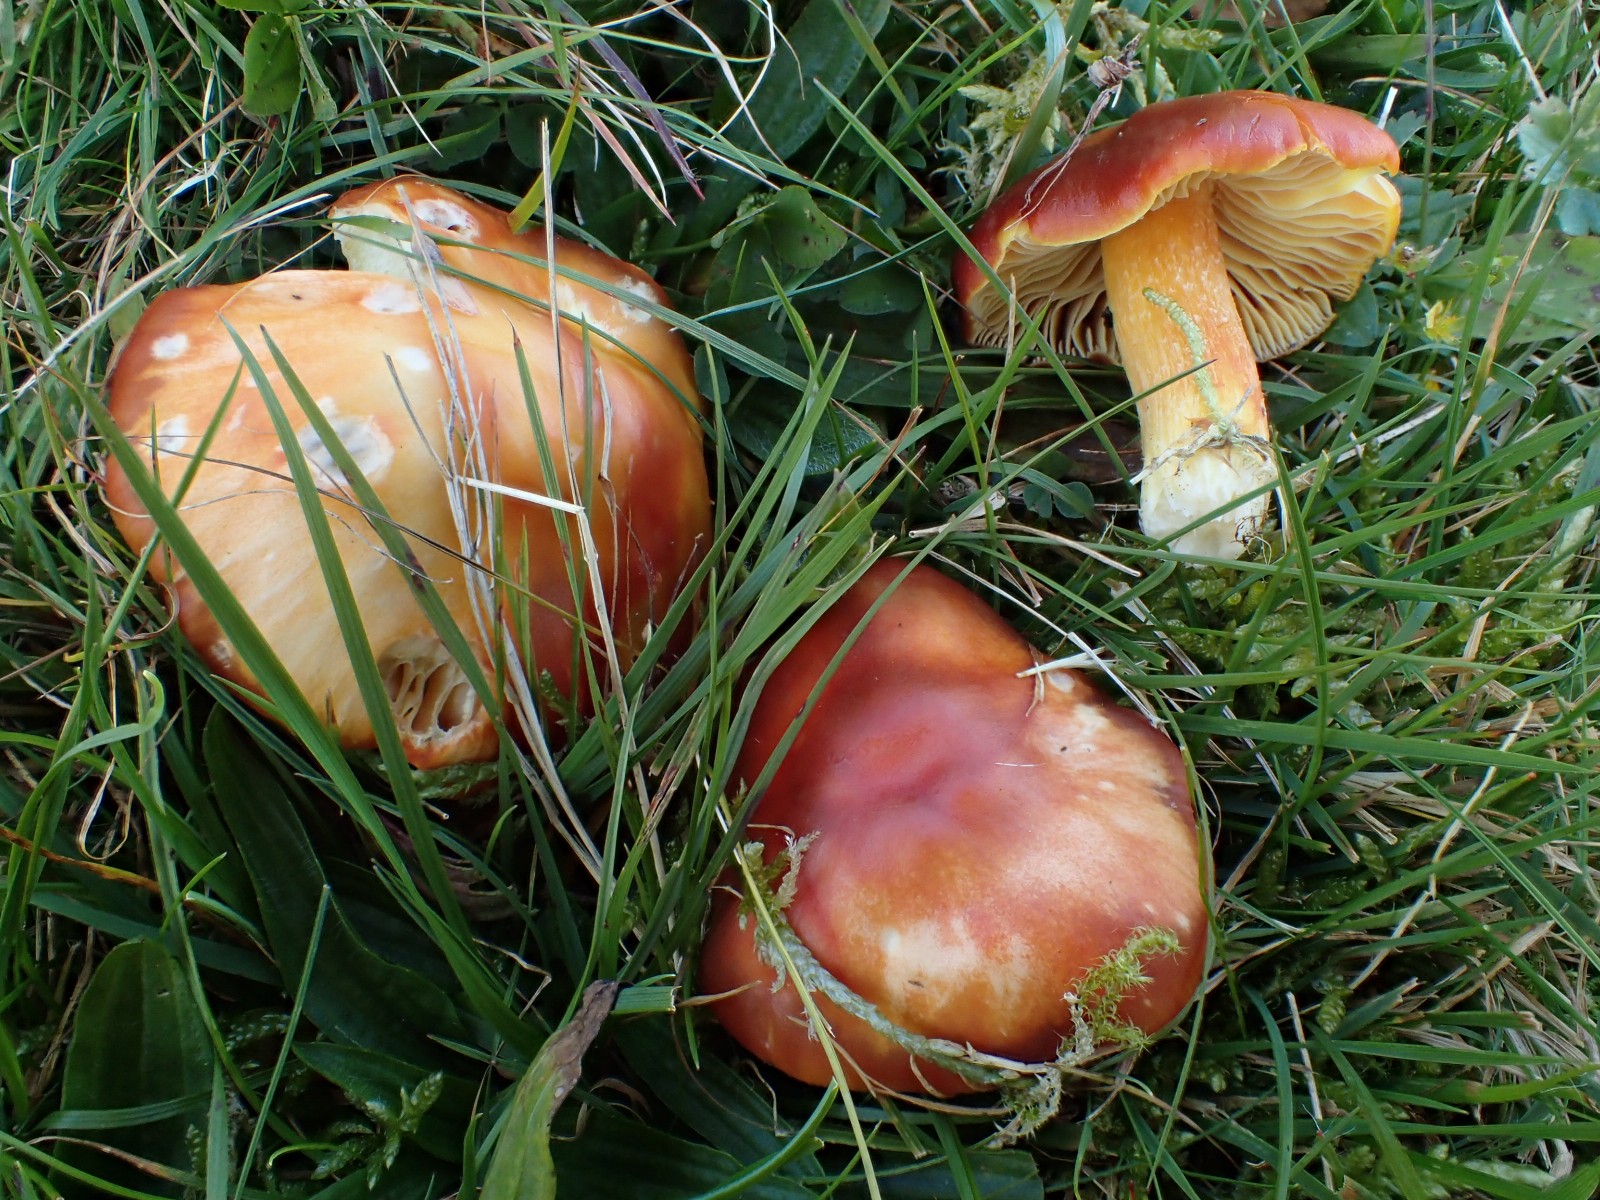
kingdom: Fungi
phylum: Basidiomycota
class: Agaricomycetes
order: Agaricales
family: Hygrophoraceae
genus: Hygrocybe
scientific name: Hygrocybe punicea
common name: skarlagen-vokshat
